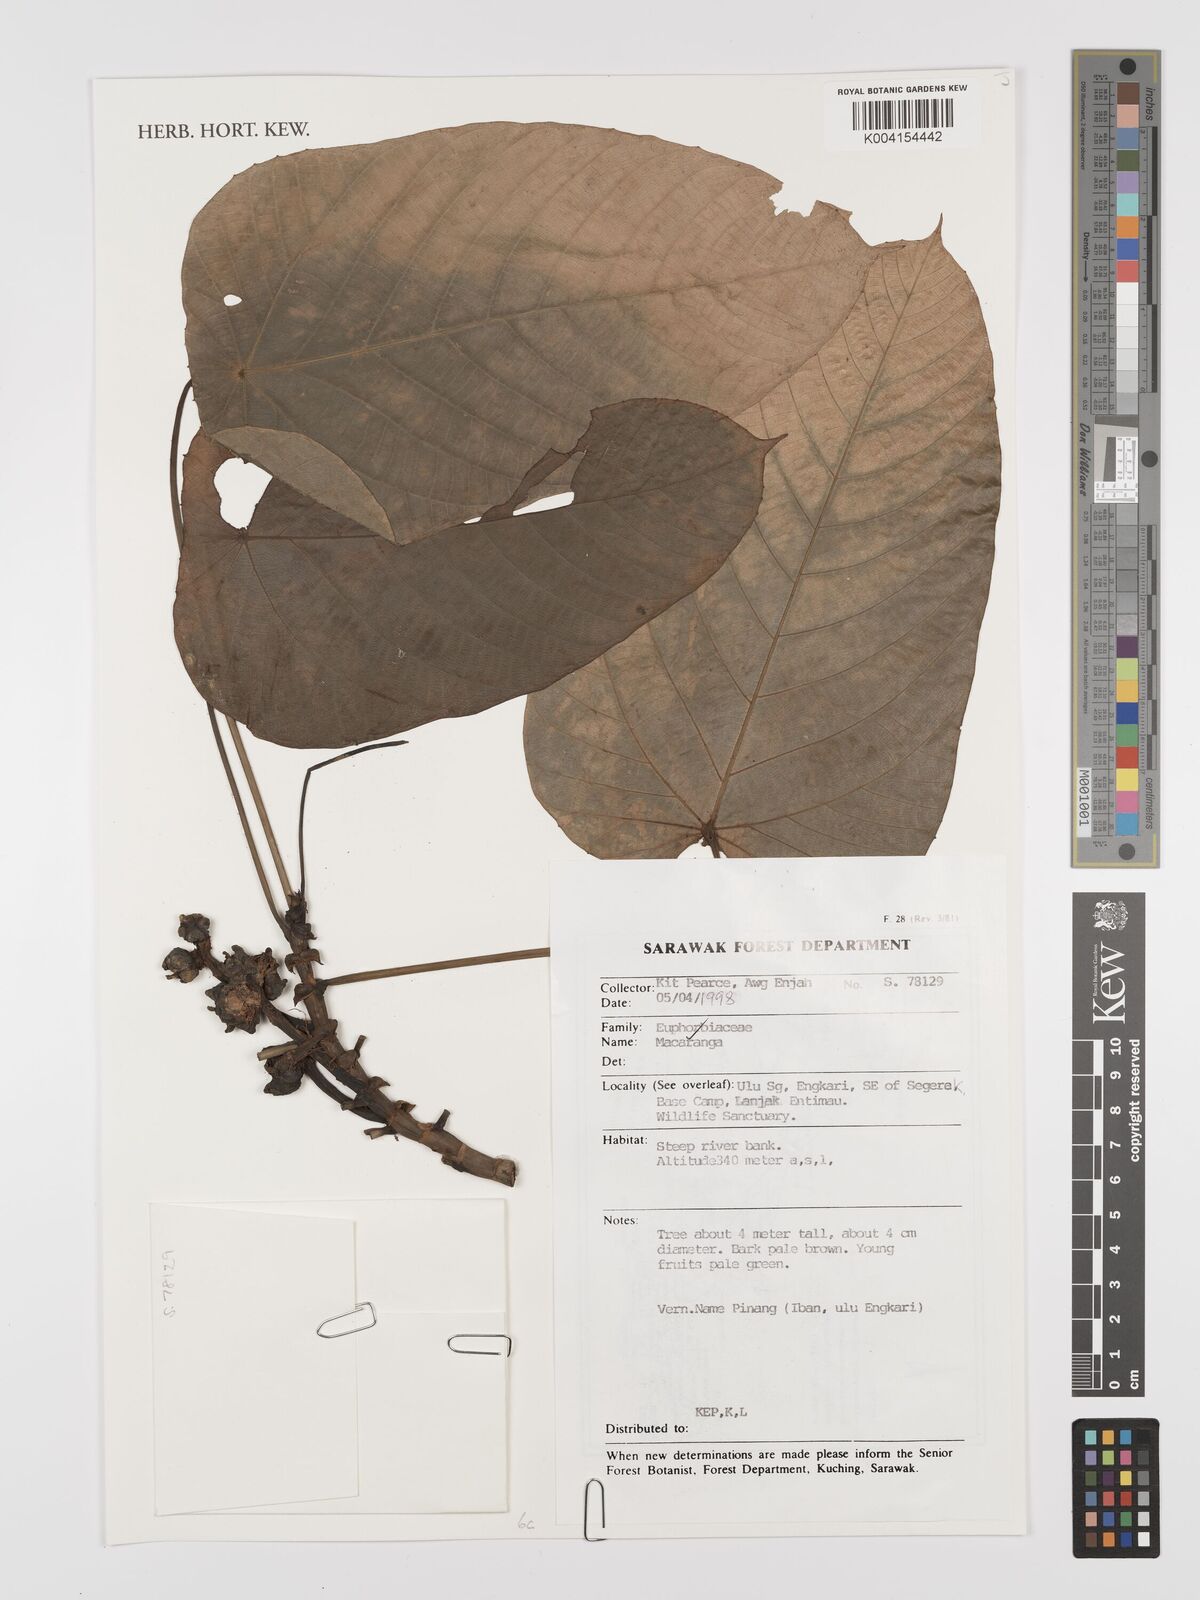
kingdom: Plantae
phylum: Tracheophyta
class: Magnoliopsida
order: Malpighiales
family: Euphorbiaceae
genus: Macaranga
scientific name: Macaranga
